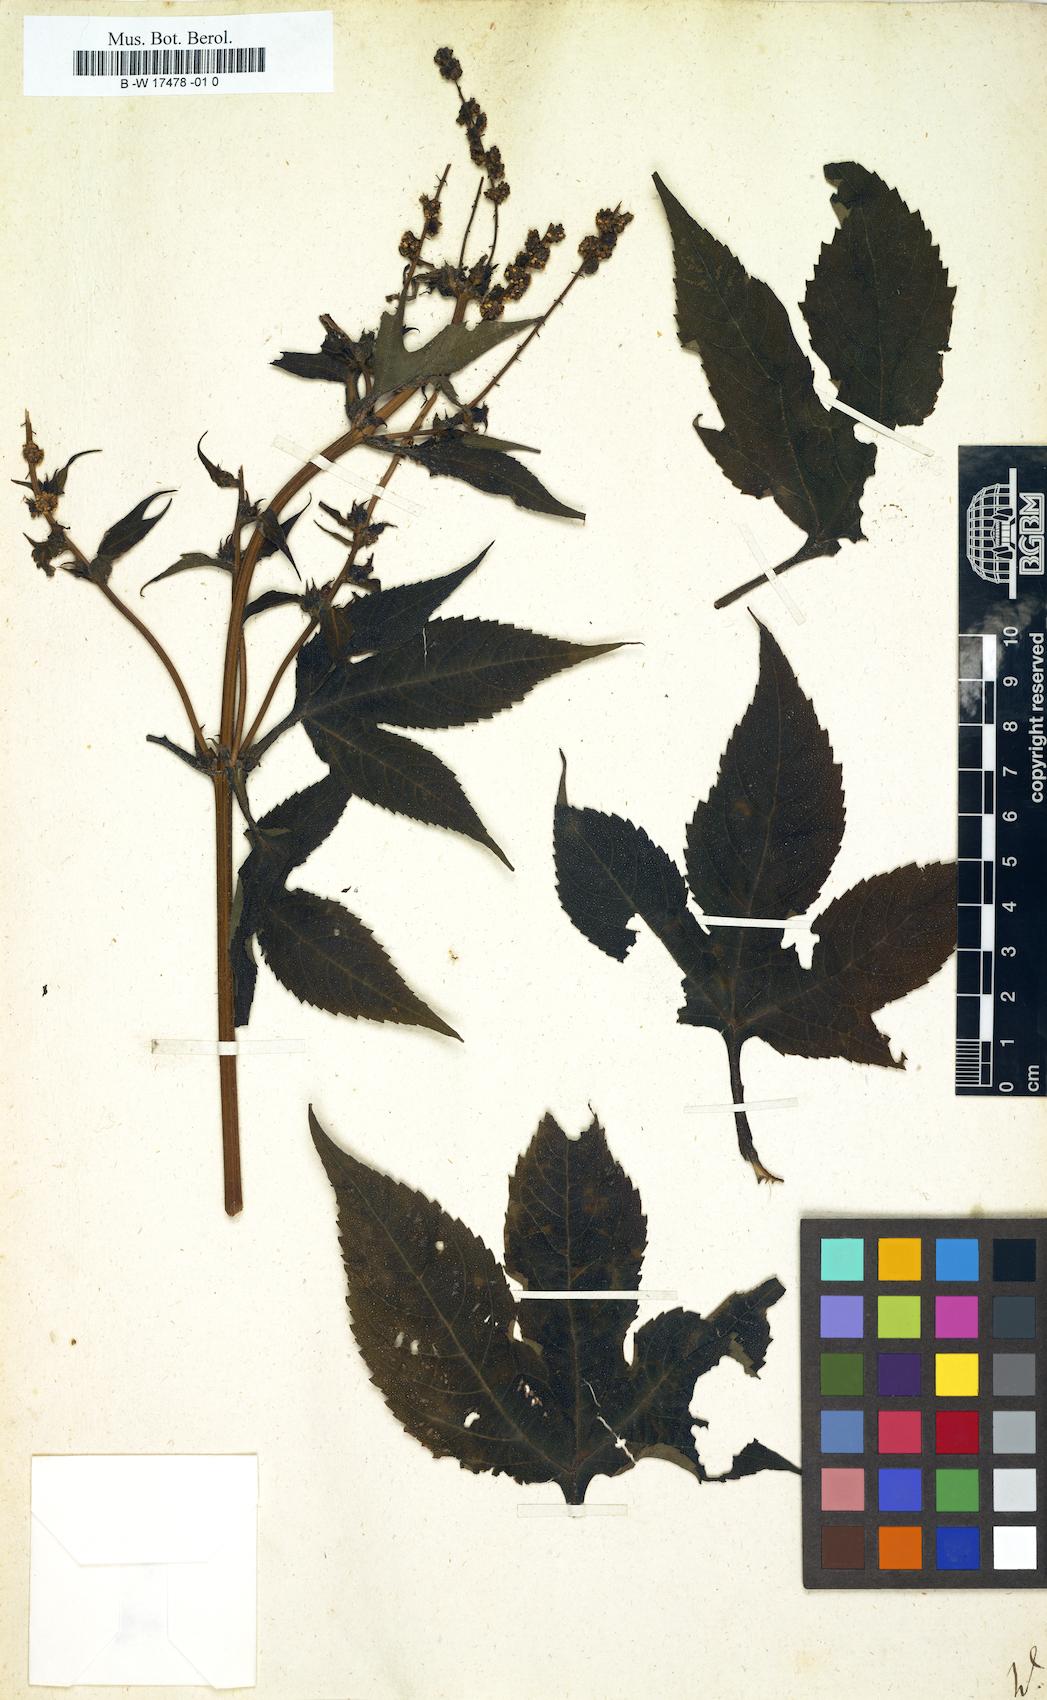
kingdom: Plantae
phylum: Tracheophyta
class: Magnoliopsida
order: Asterales
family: Asteraceae
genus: Ambrosia
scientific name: Ambrosia
